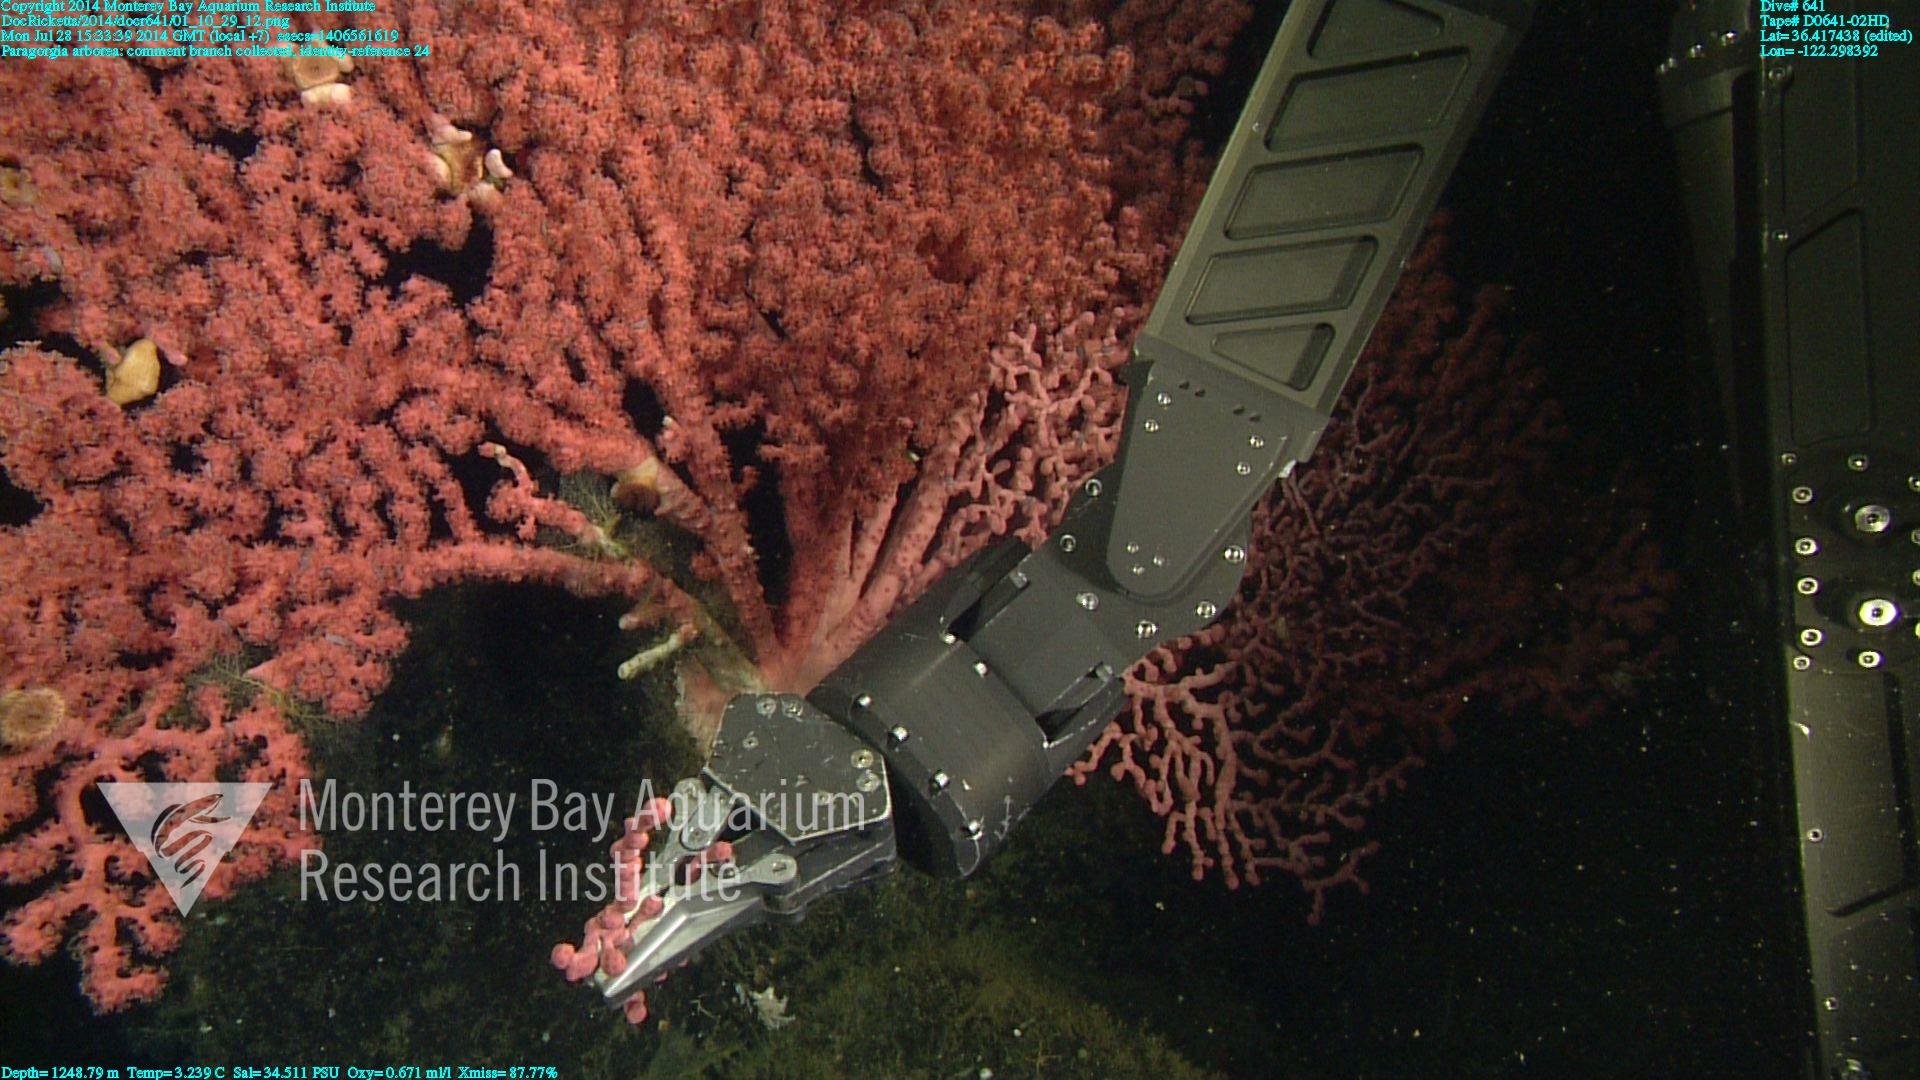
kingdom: Animalia
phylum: Cnidaria
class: Anthozoa
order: Scleralcyonacea
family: Coralliidae
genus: Paragorgia
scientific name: Paragorgia arborea
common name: Bubble gum coral
